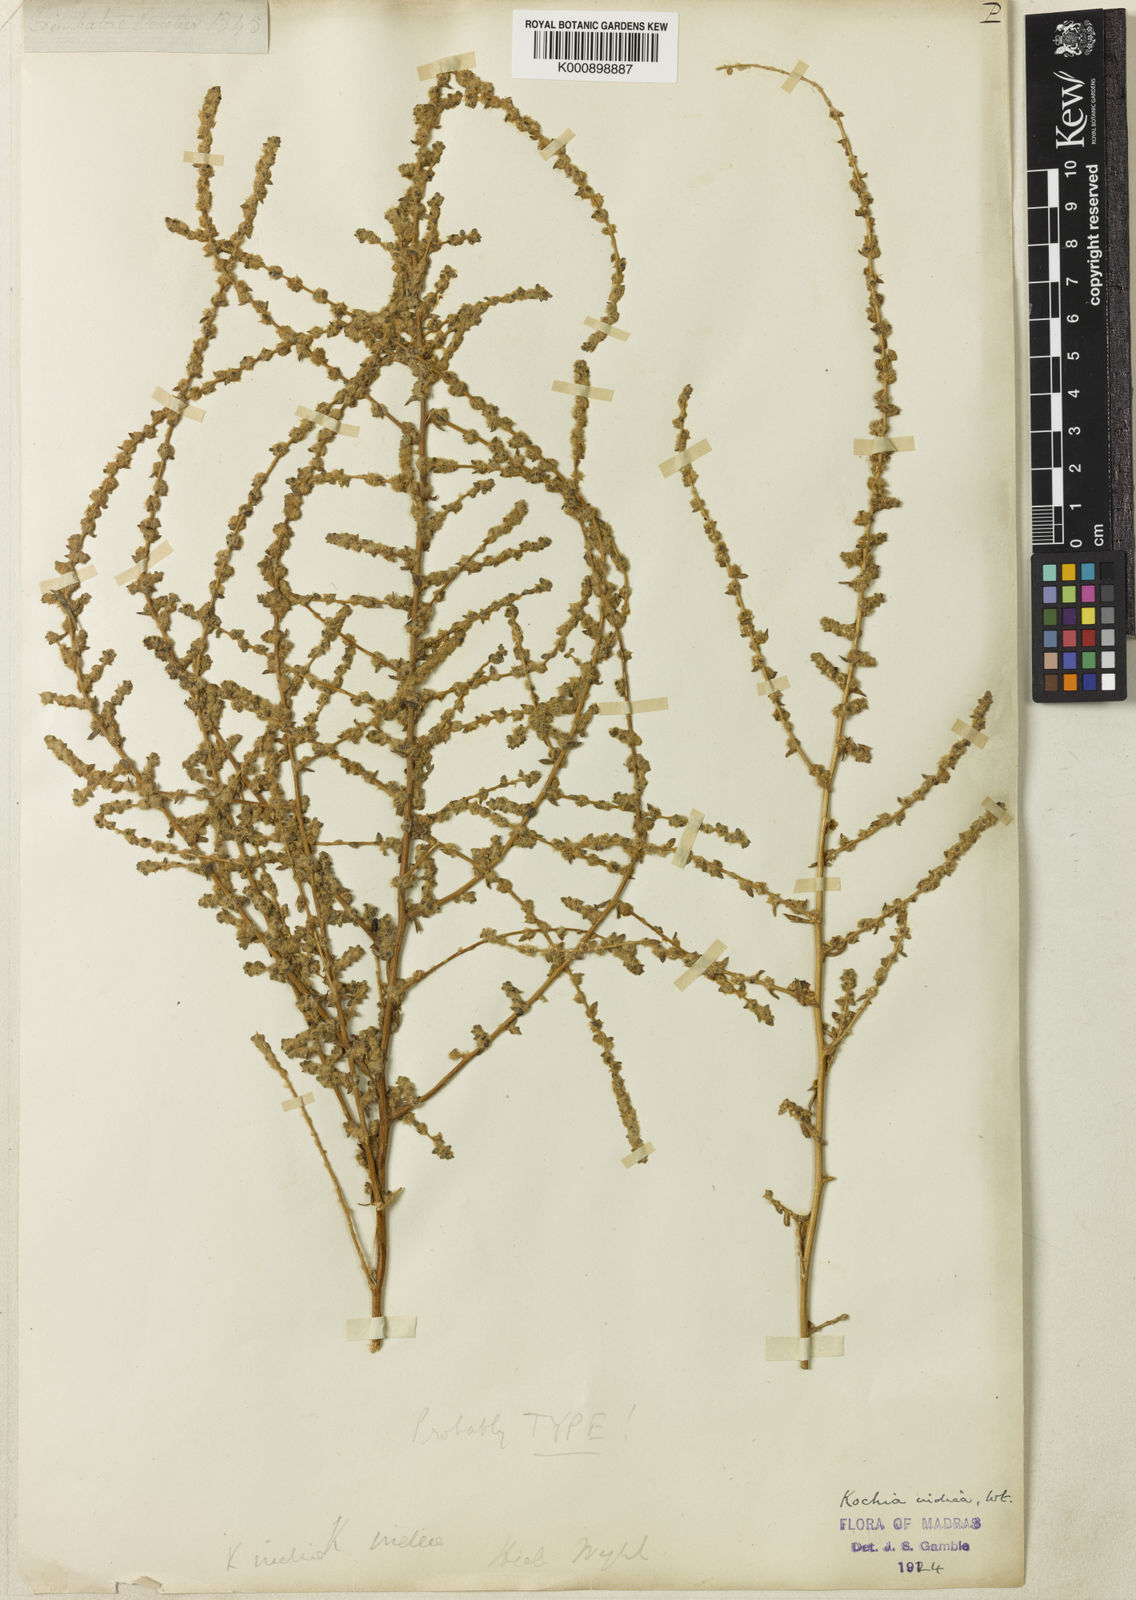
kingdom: Plantae
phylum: Tracheophyta
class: Magnoliopsida
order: Caryophyllales
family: Amaranthaceae
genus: Bassia
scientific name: Bassia indica
